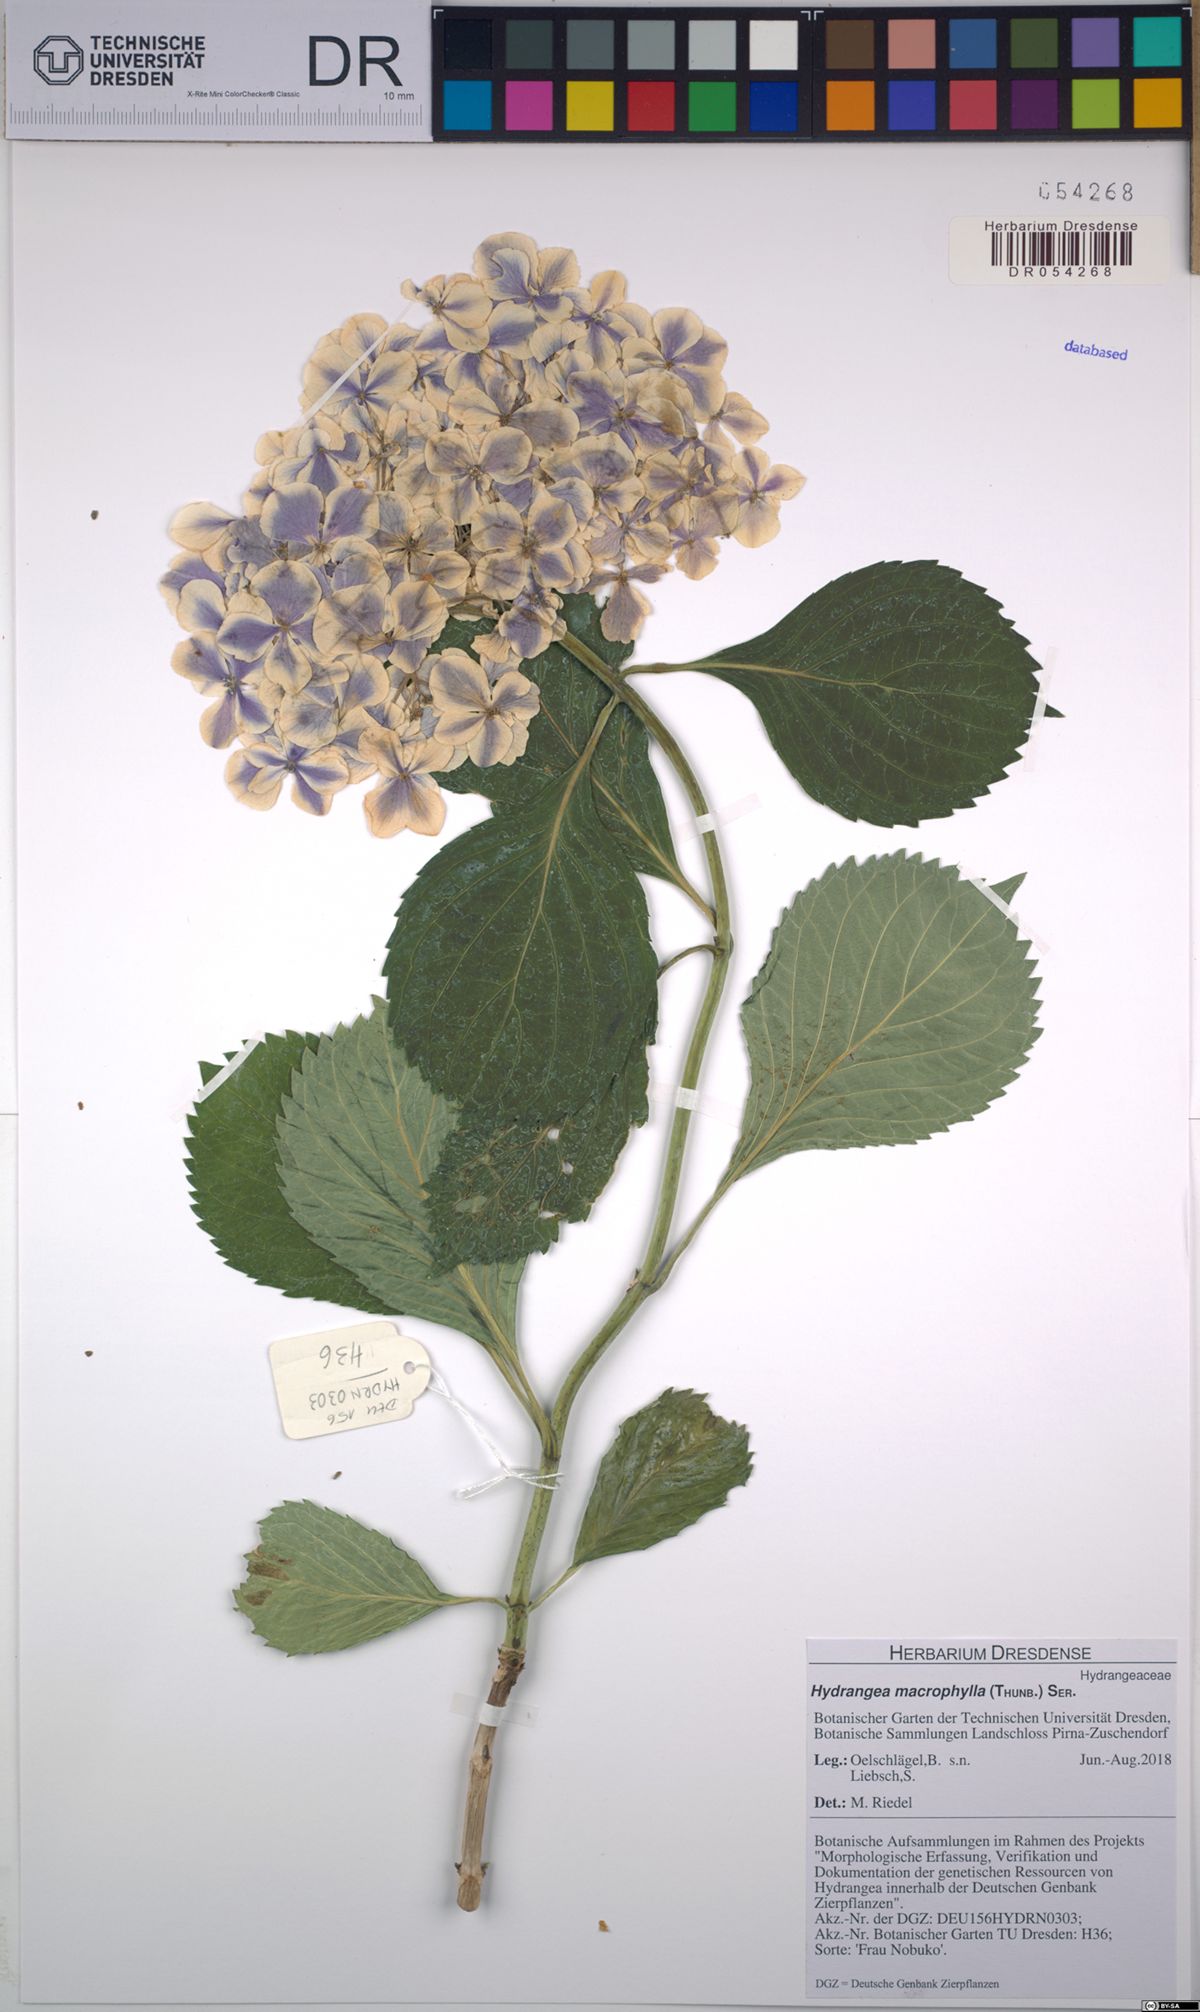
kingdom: Plantae
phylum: Tracheophyta
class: Magnoliopsida
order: Cornales
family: Hydrangeaceae
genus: Hydrangea
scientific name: Hydrangea macrophylla
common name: Hydrangea
